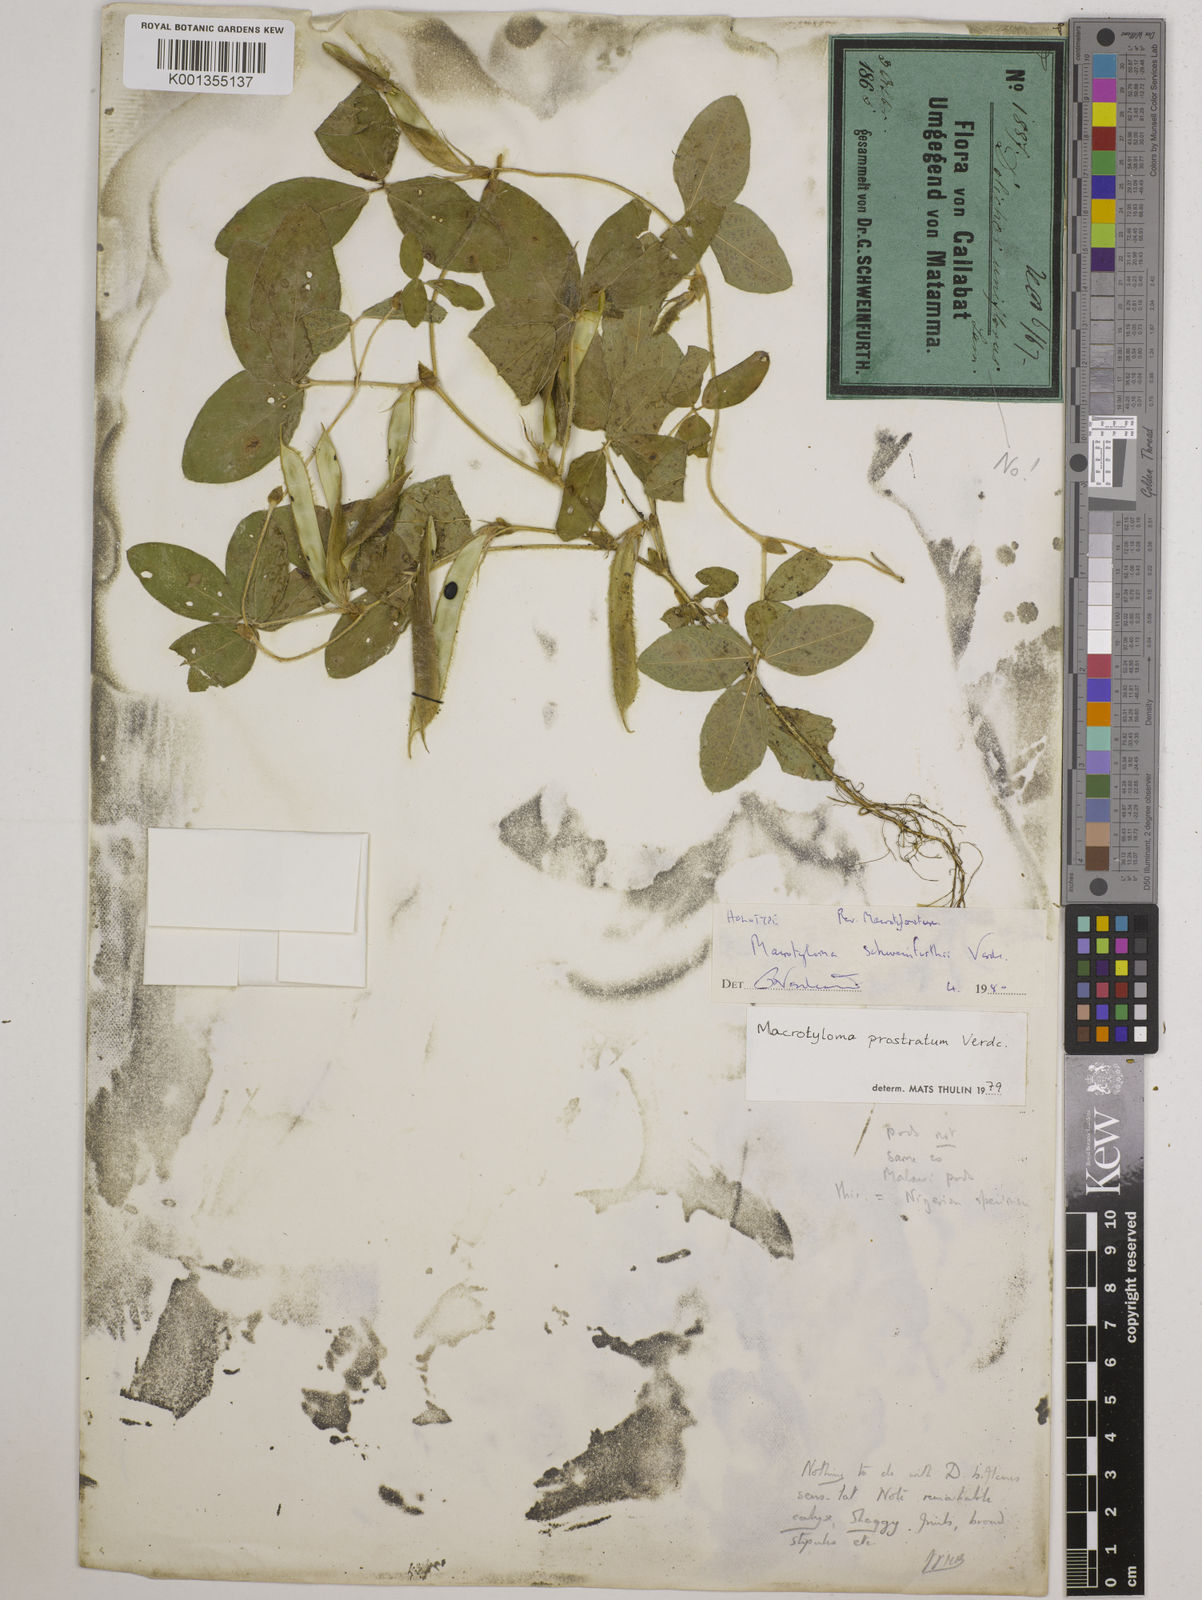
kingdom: Plantae
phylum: Tracheophyta
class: Magnoliopsida
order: Fabales
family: Fabaceae
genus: Macrotyloma
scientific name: Macrotyloma schweinfurthii
